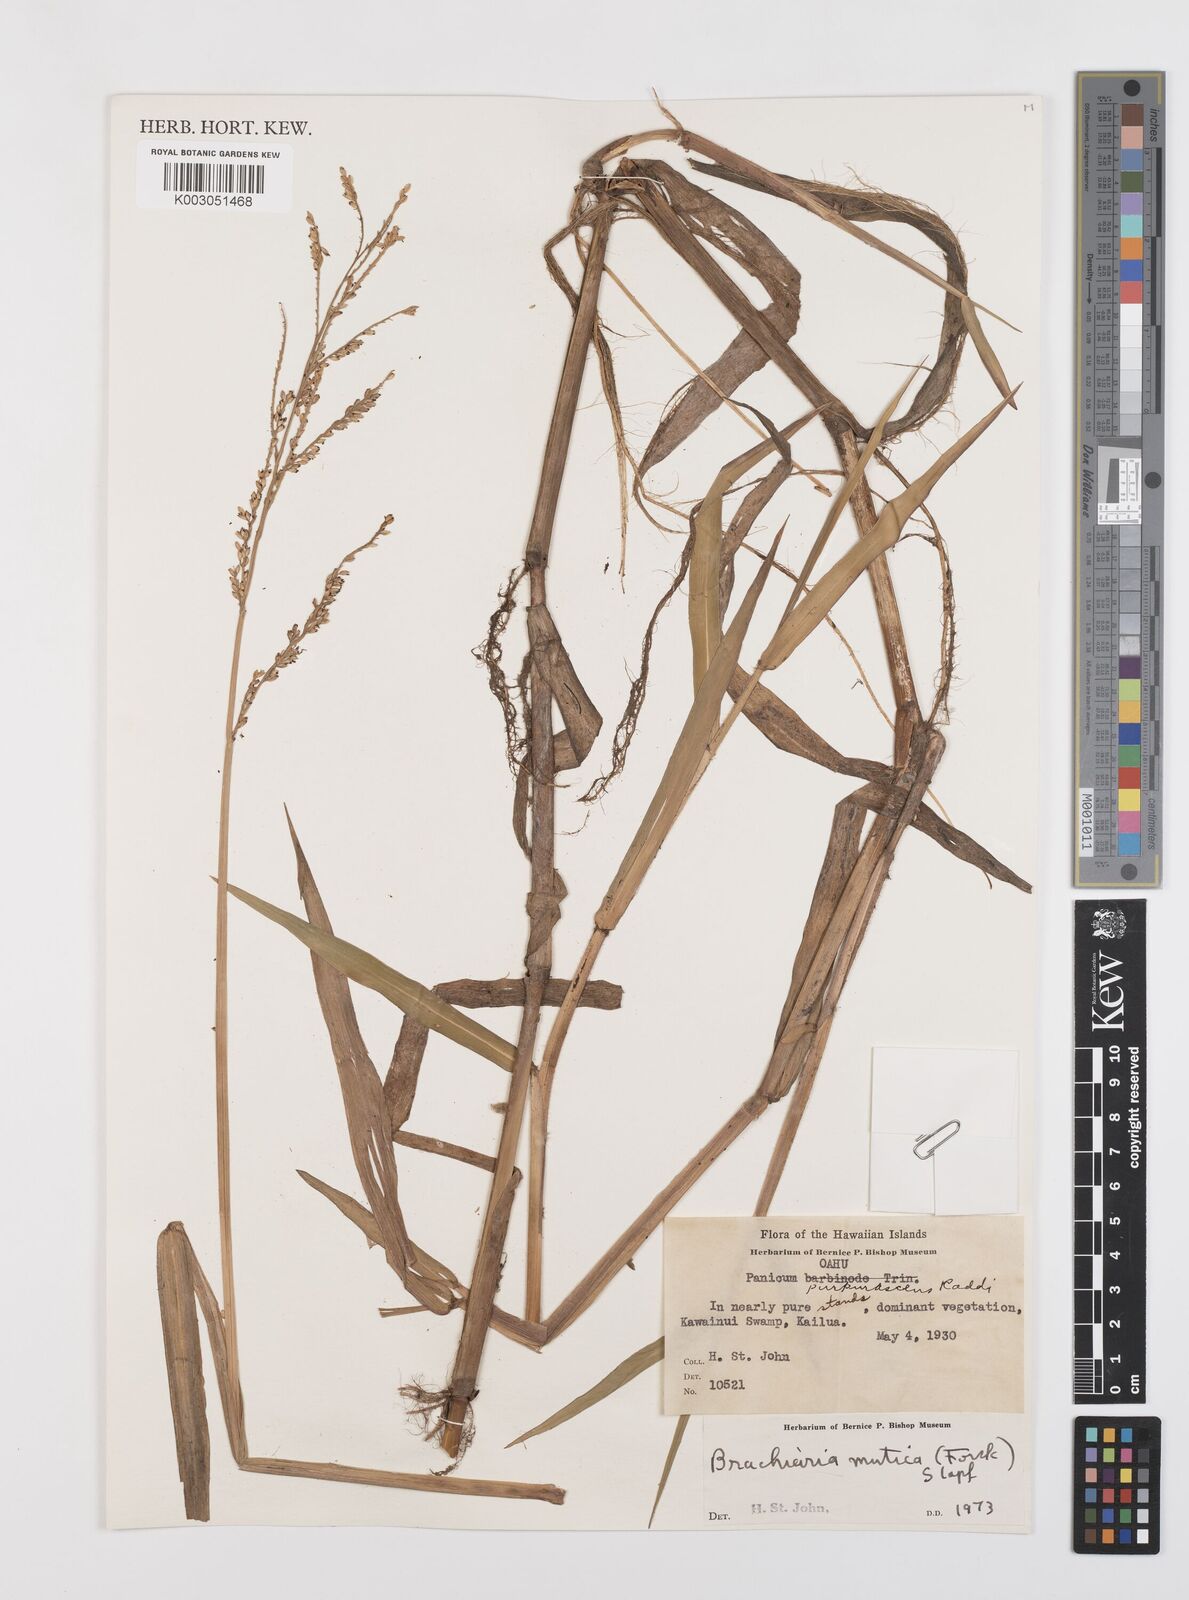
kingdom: Plantae
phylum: Tracheophyta
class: Liliopsida
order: Poales
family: Poaceae
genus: Urochloa
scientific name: Urochloa mutica
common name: Para grass
